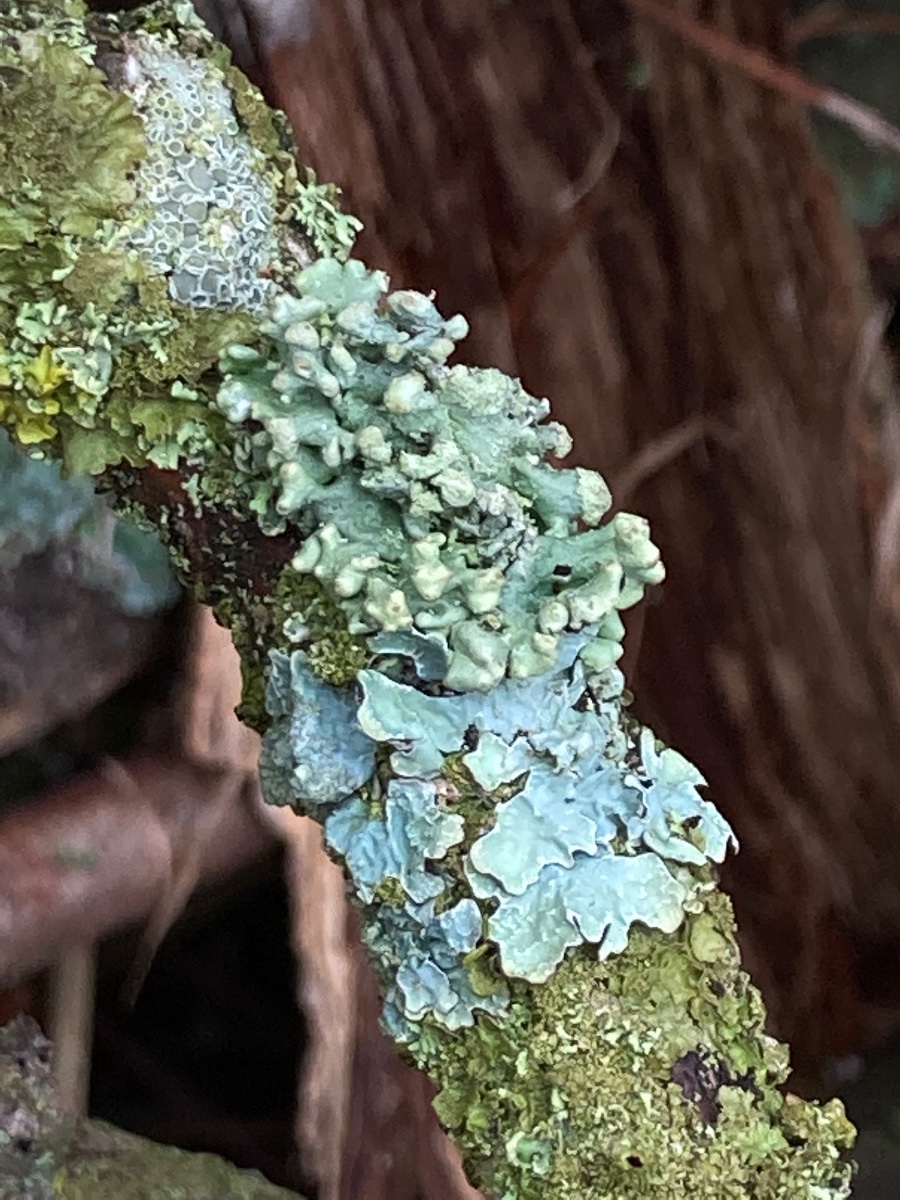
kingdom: Fungi
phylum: Ascomycota
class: Lecanoromycetes
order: Lecanorales
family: Parmeliaceae
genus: Hypogymnia
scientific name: Hypogymnia tubulosa
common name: finger-kvistlav
